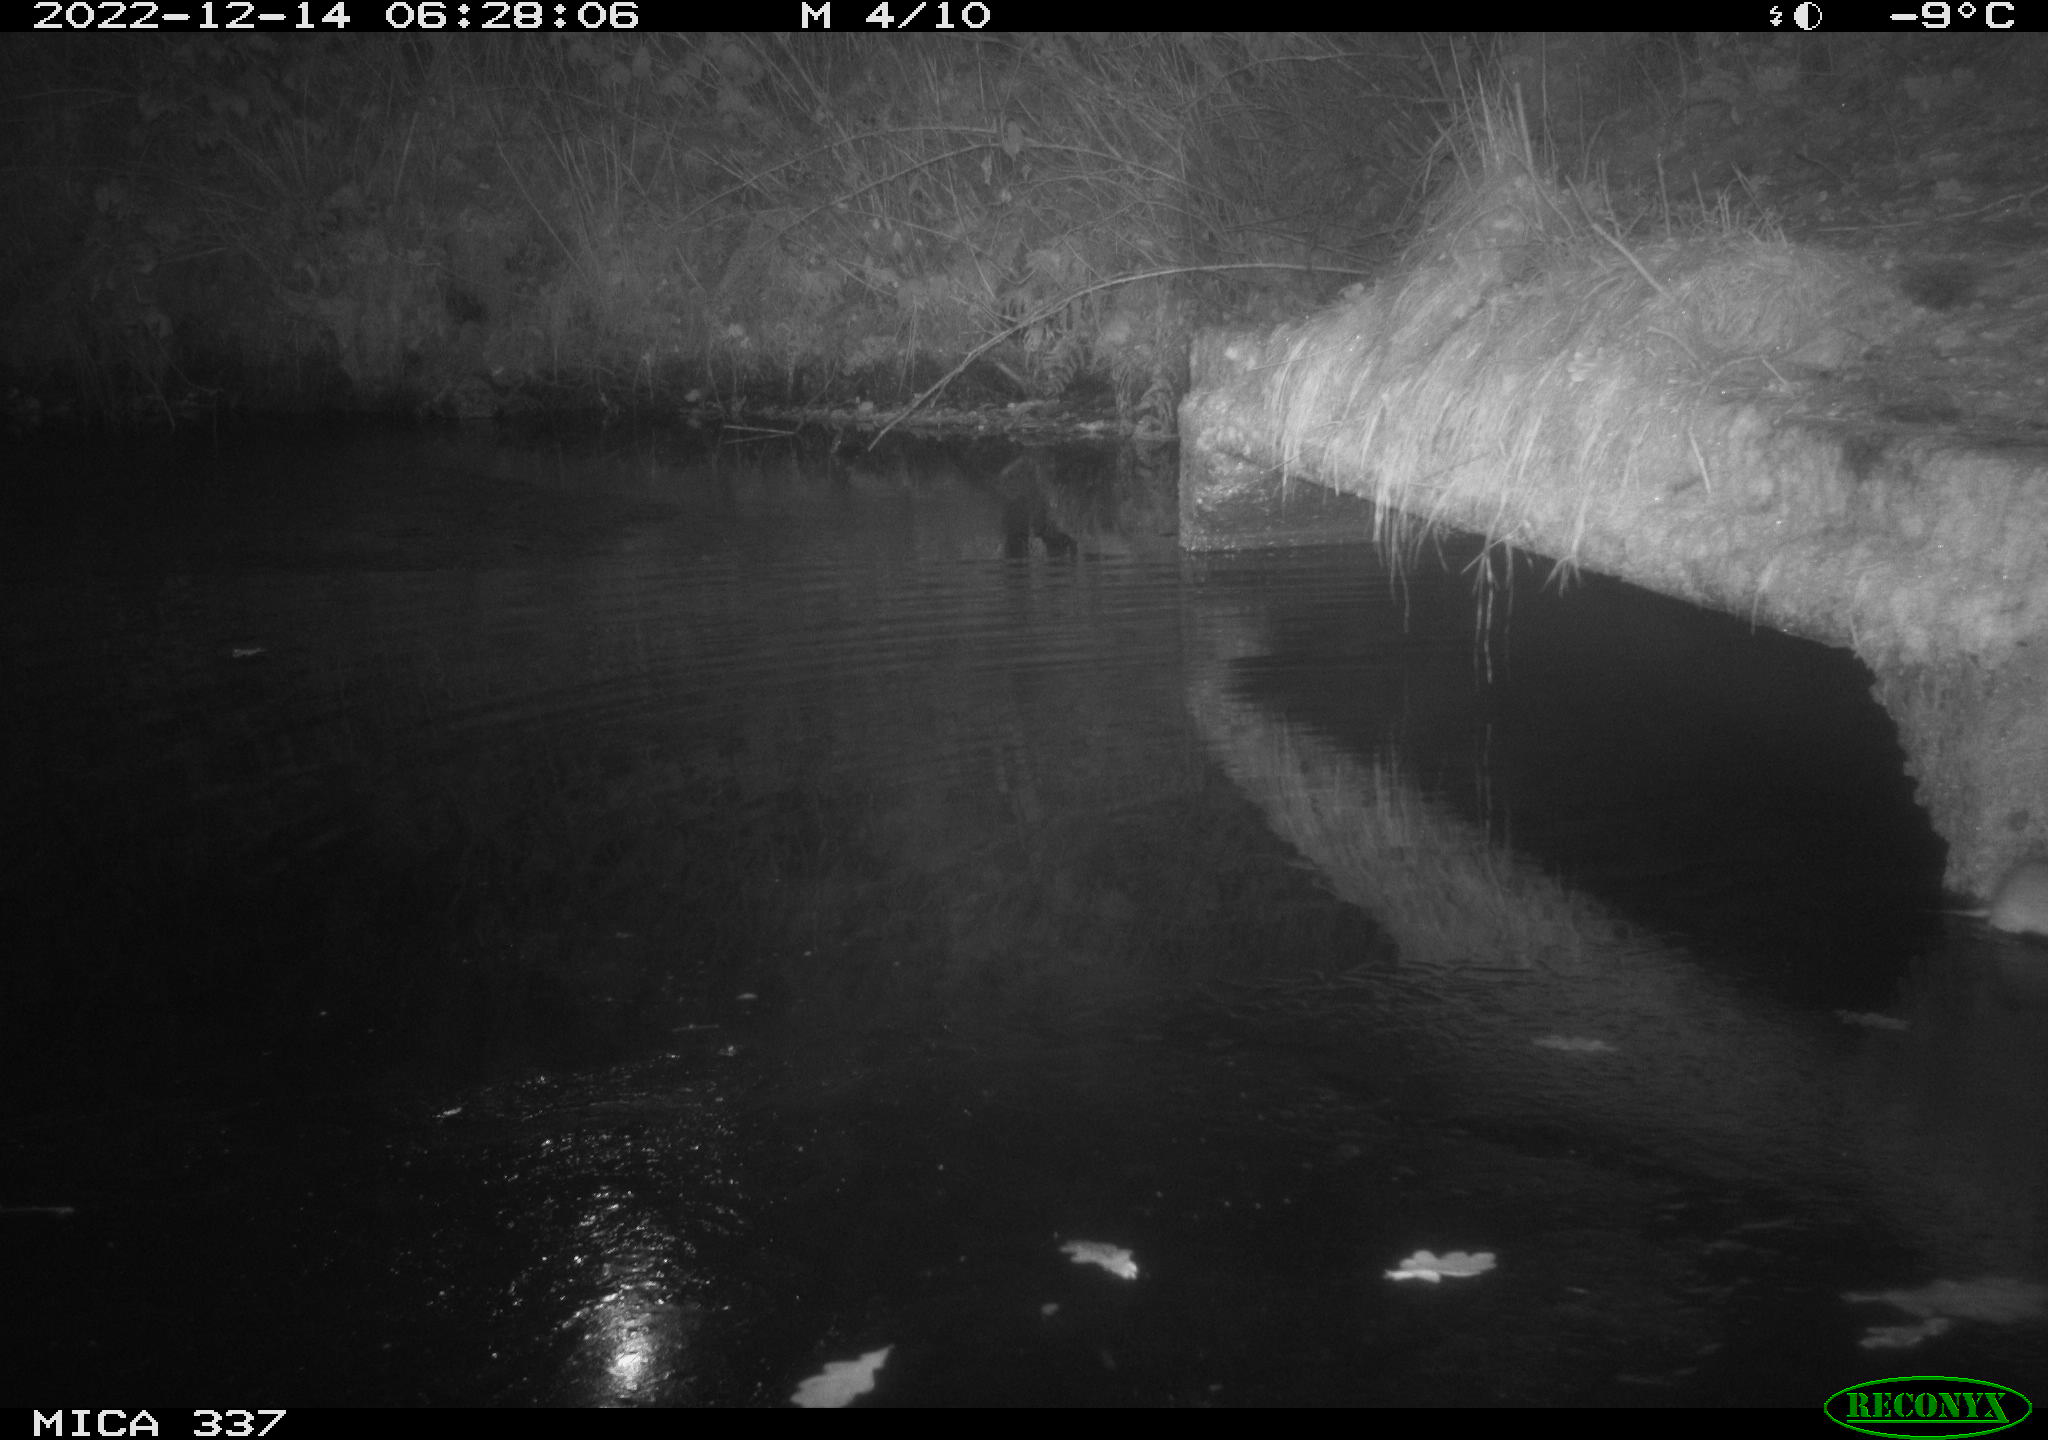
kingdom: Animalia
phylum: Chordata
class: Mammalia
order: Rodentia
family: Muridae
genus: Rattus
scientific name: Rattus norvegicus
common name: Brown rat
